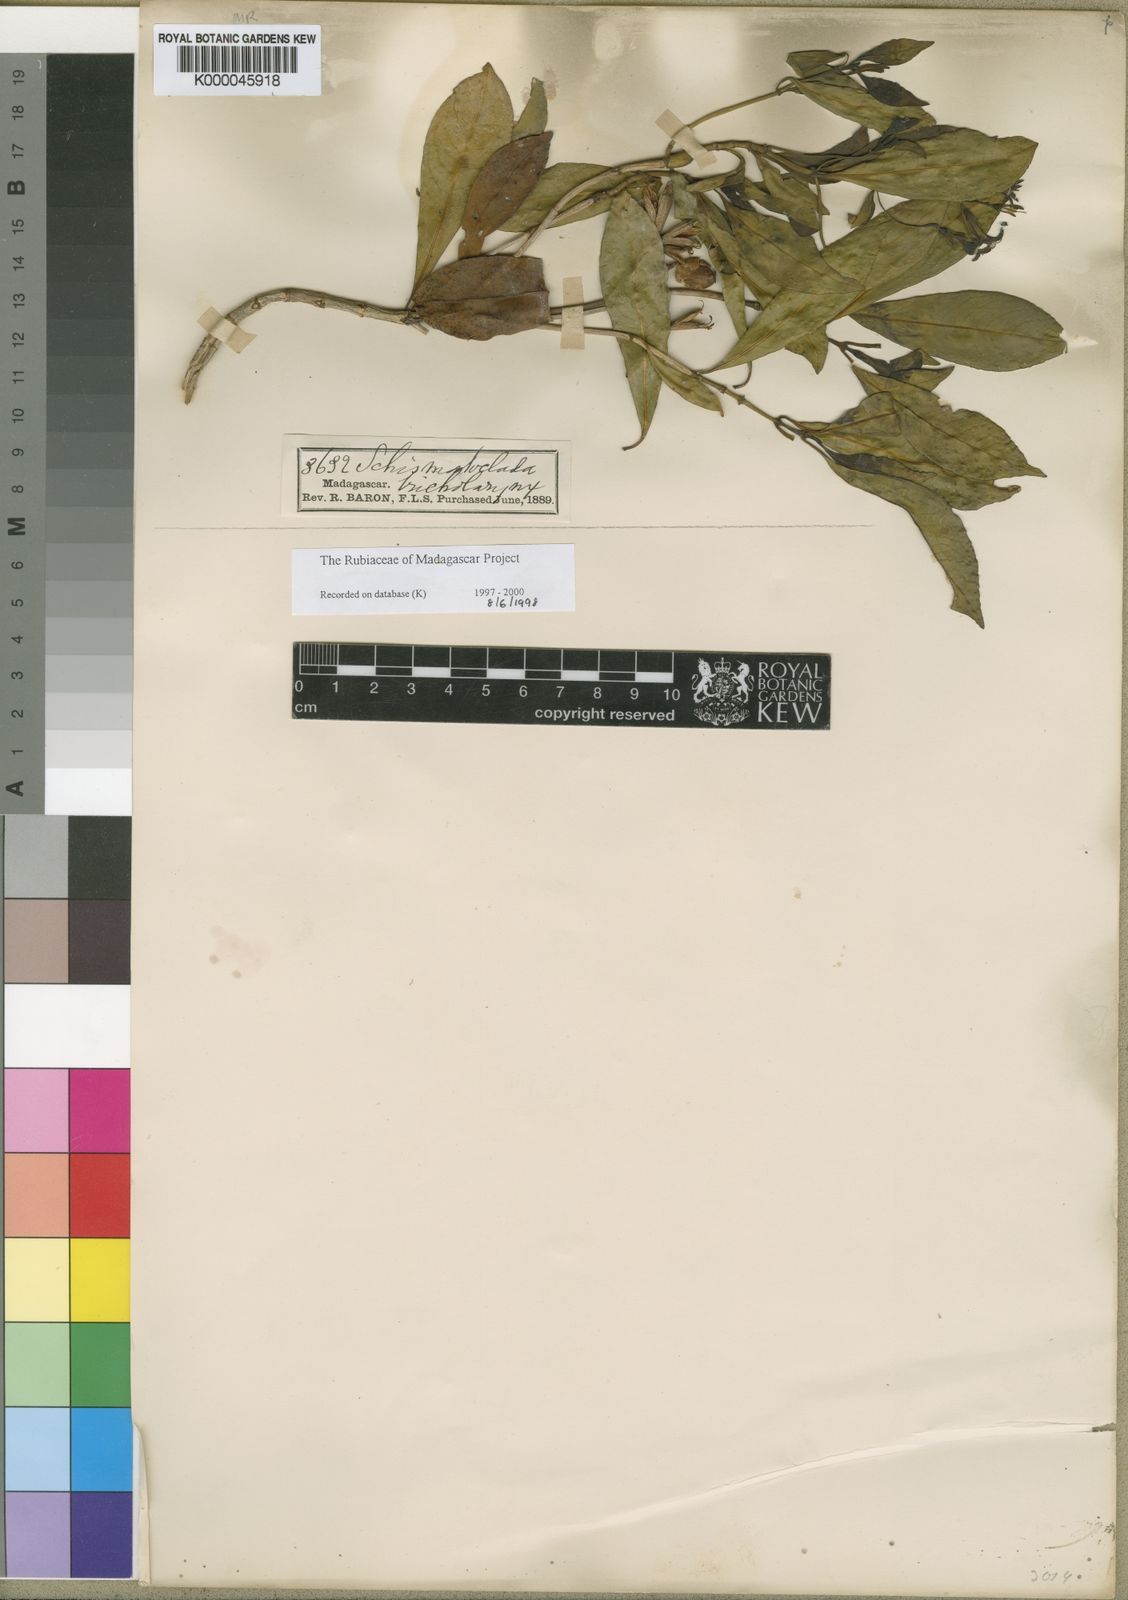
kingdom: Plantae
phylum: Tracheophyta
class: Magnoliopsida
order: Gentianales
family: Rubiaceae
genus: Schismatoclada
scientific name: Schismatoclada psychotrioides
